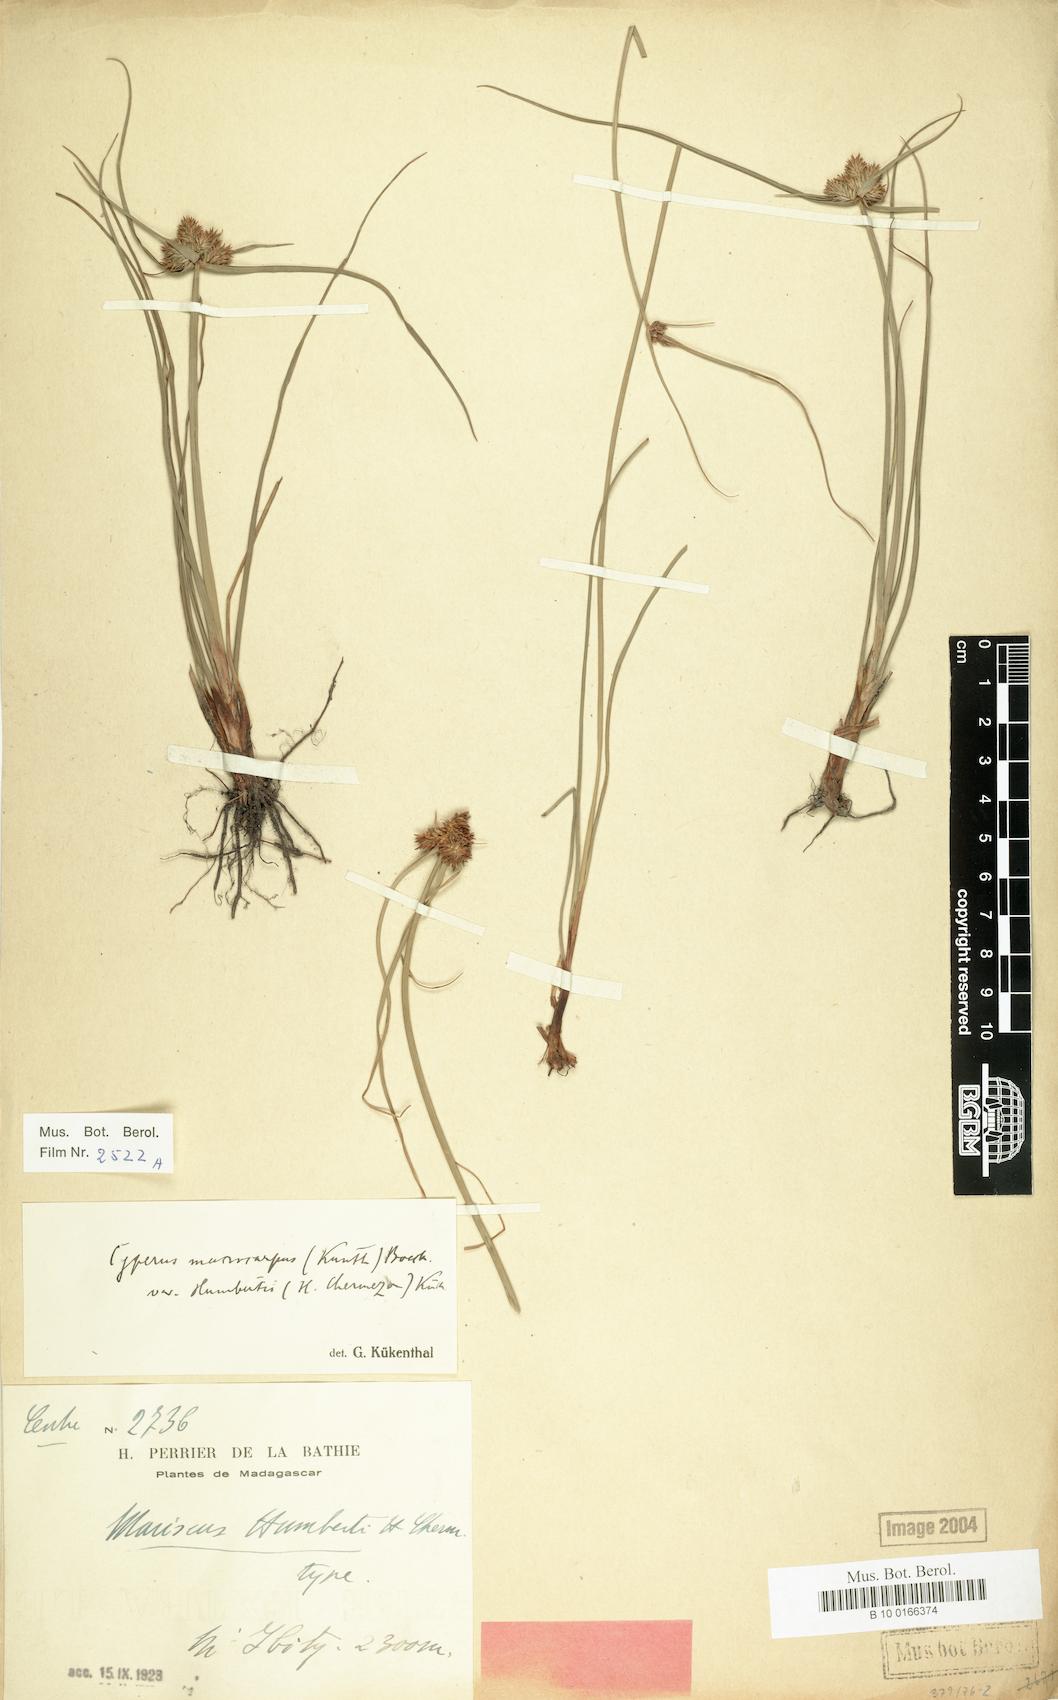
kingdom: Plantae
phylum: Tracheophyta
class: Liliopsida
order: Poales
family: Cyperaceae
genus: Cyperus
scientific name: Cyperus cyperoides
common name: Pacific island flat sedge
